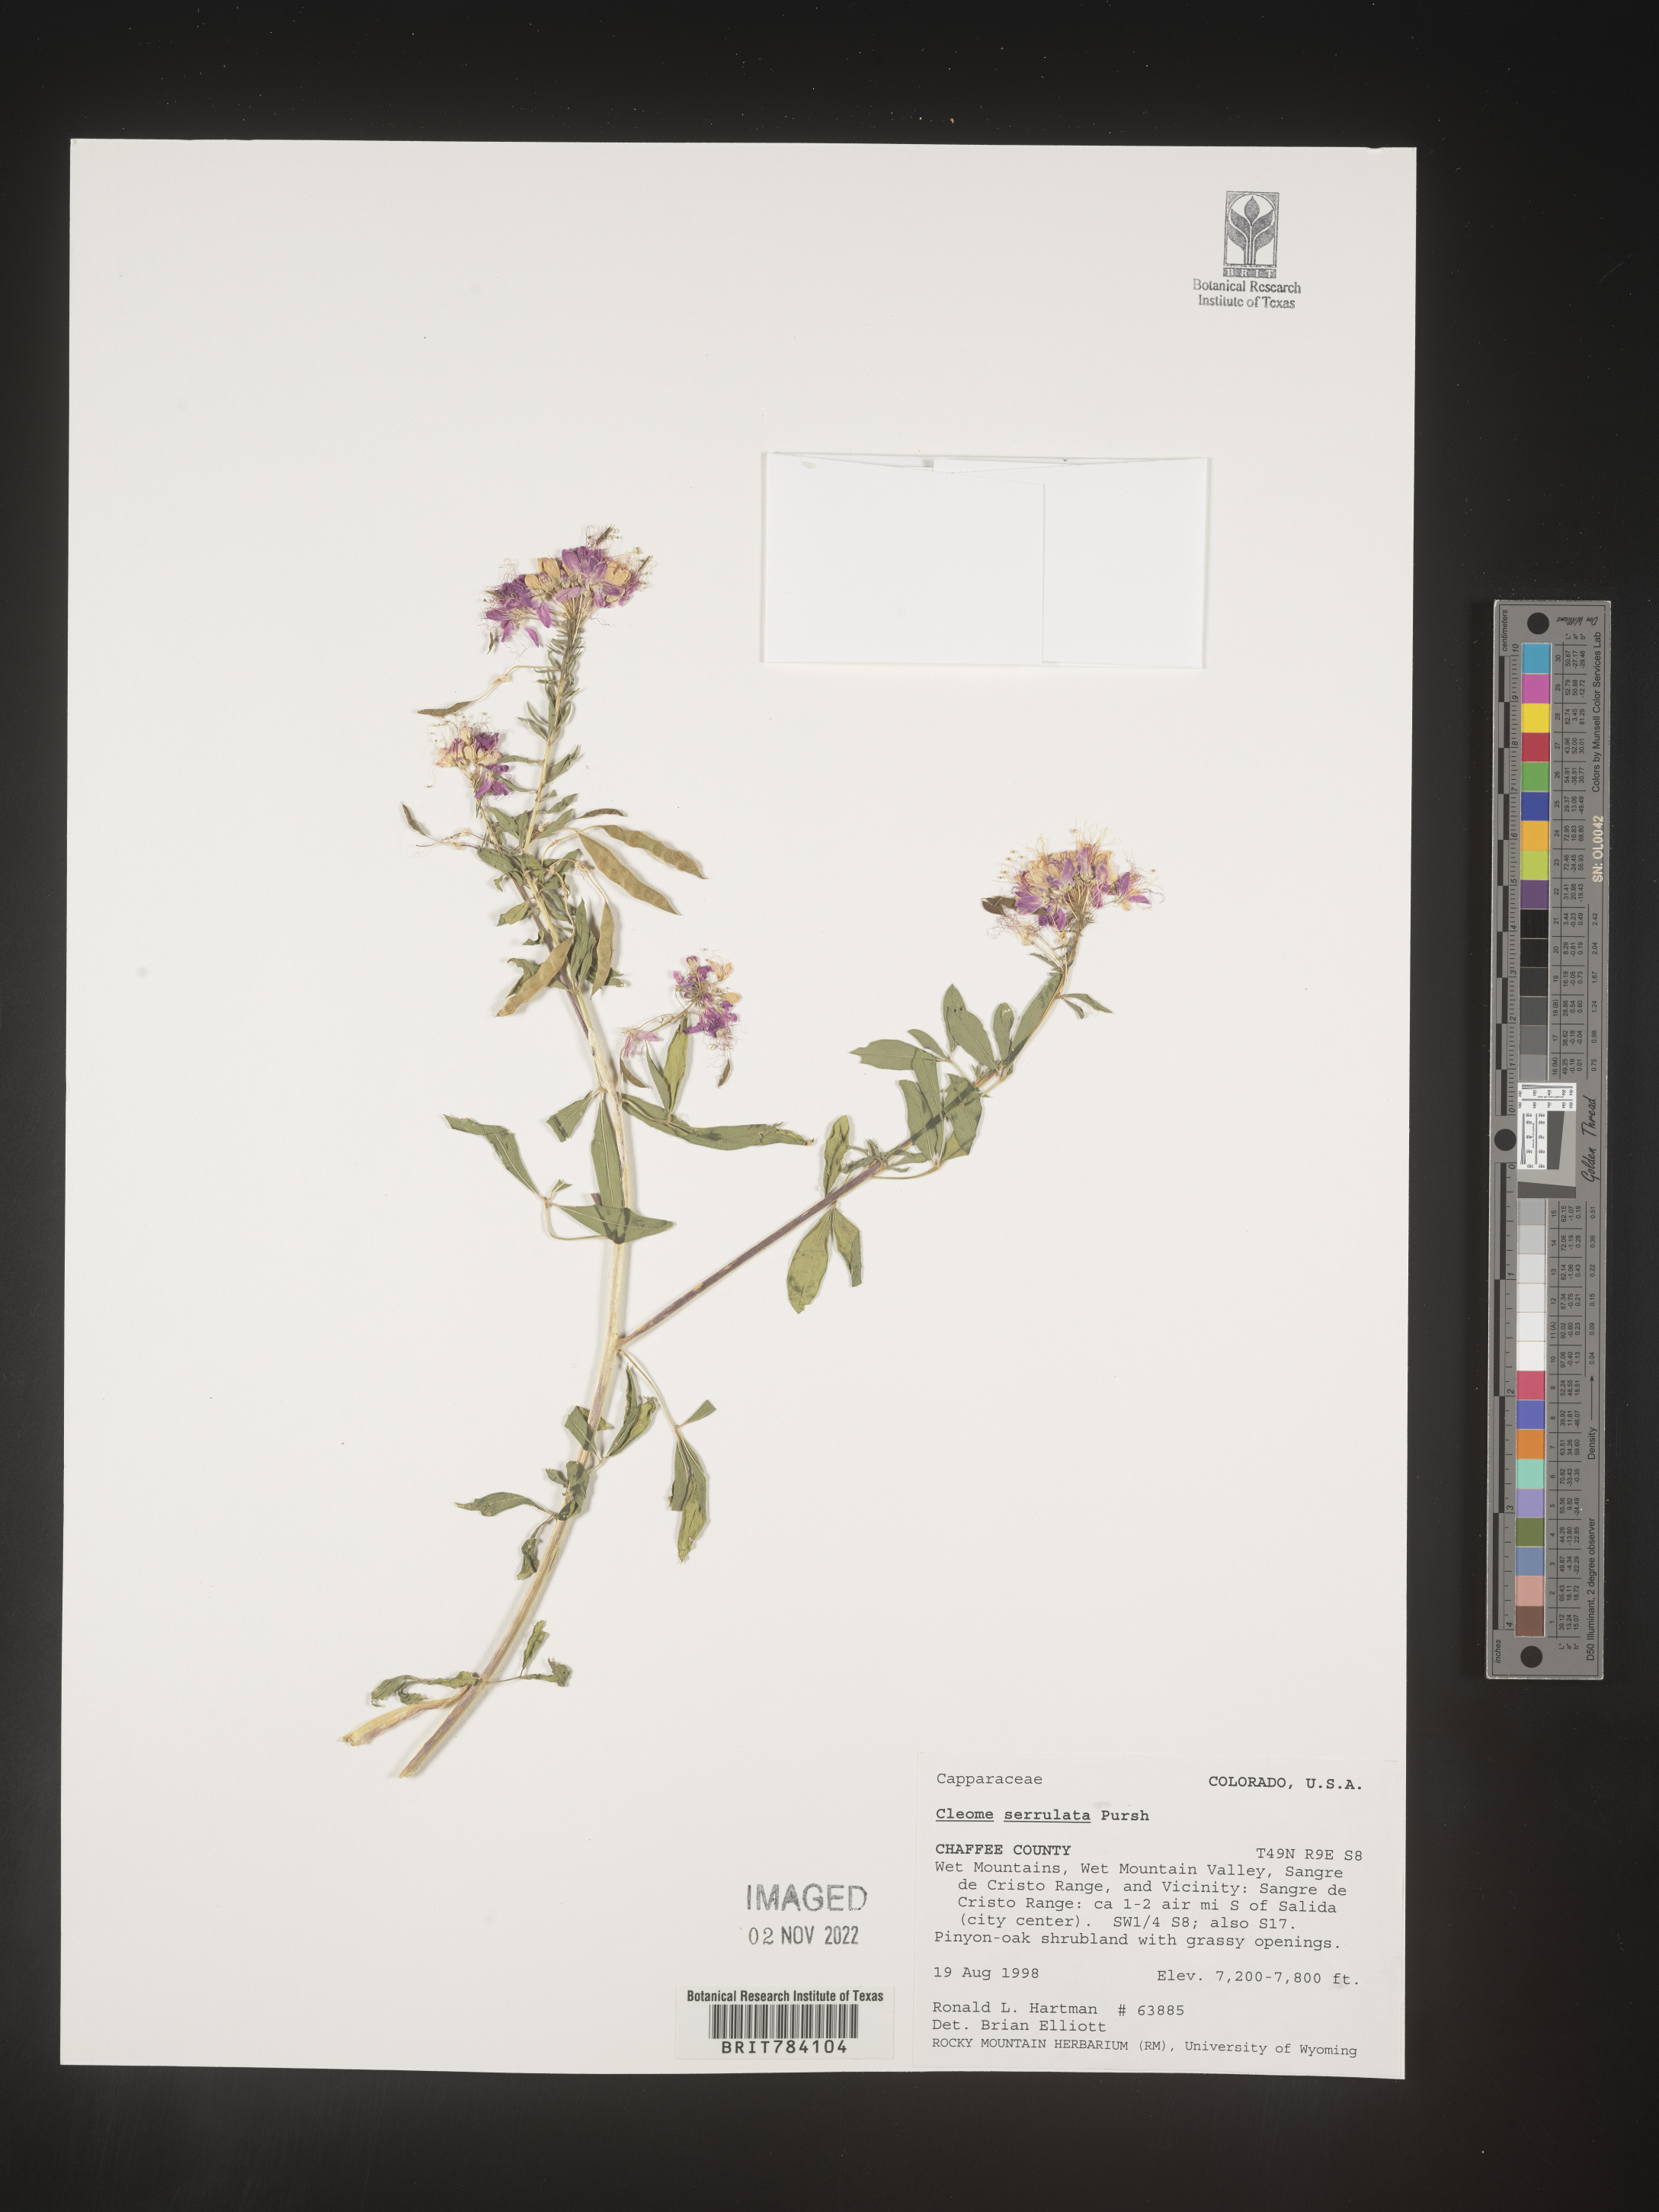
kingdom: Plantae
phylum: Tracheophyta
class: Magnoliopsida
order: Brassicales
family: Cleomaceae
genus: Cleomella
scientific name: Cleomella serrulata
